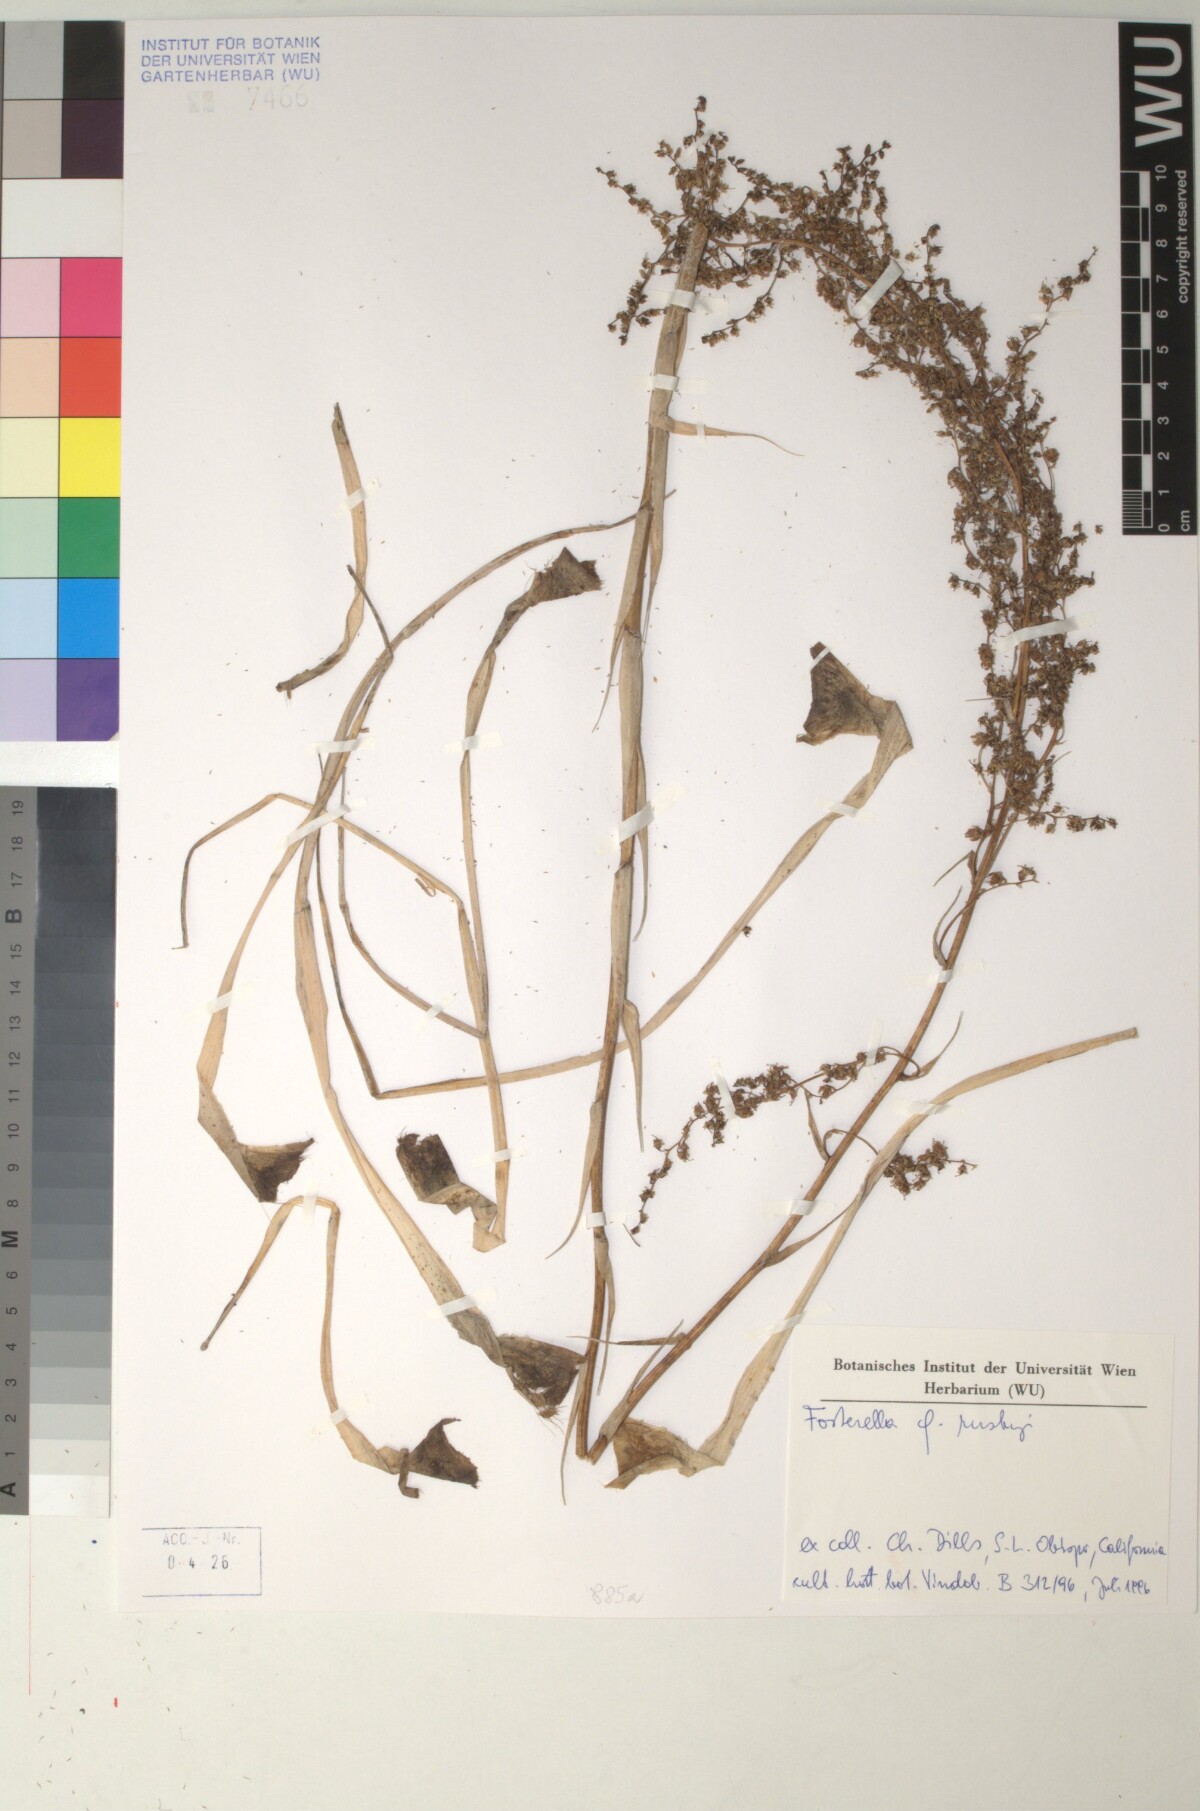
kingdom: Plantae
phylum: Tracheophyta
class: Liliopsida
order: Poales
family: Bromeliaceae
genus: Fosterella
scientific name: Fosterella graminea
